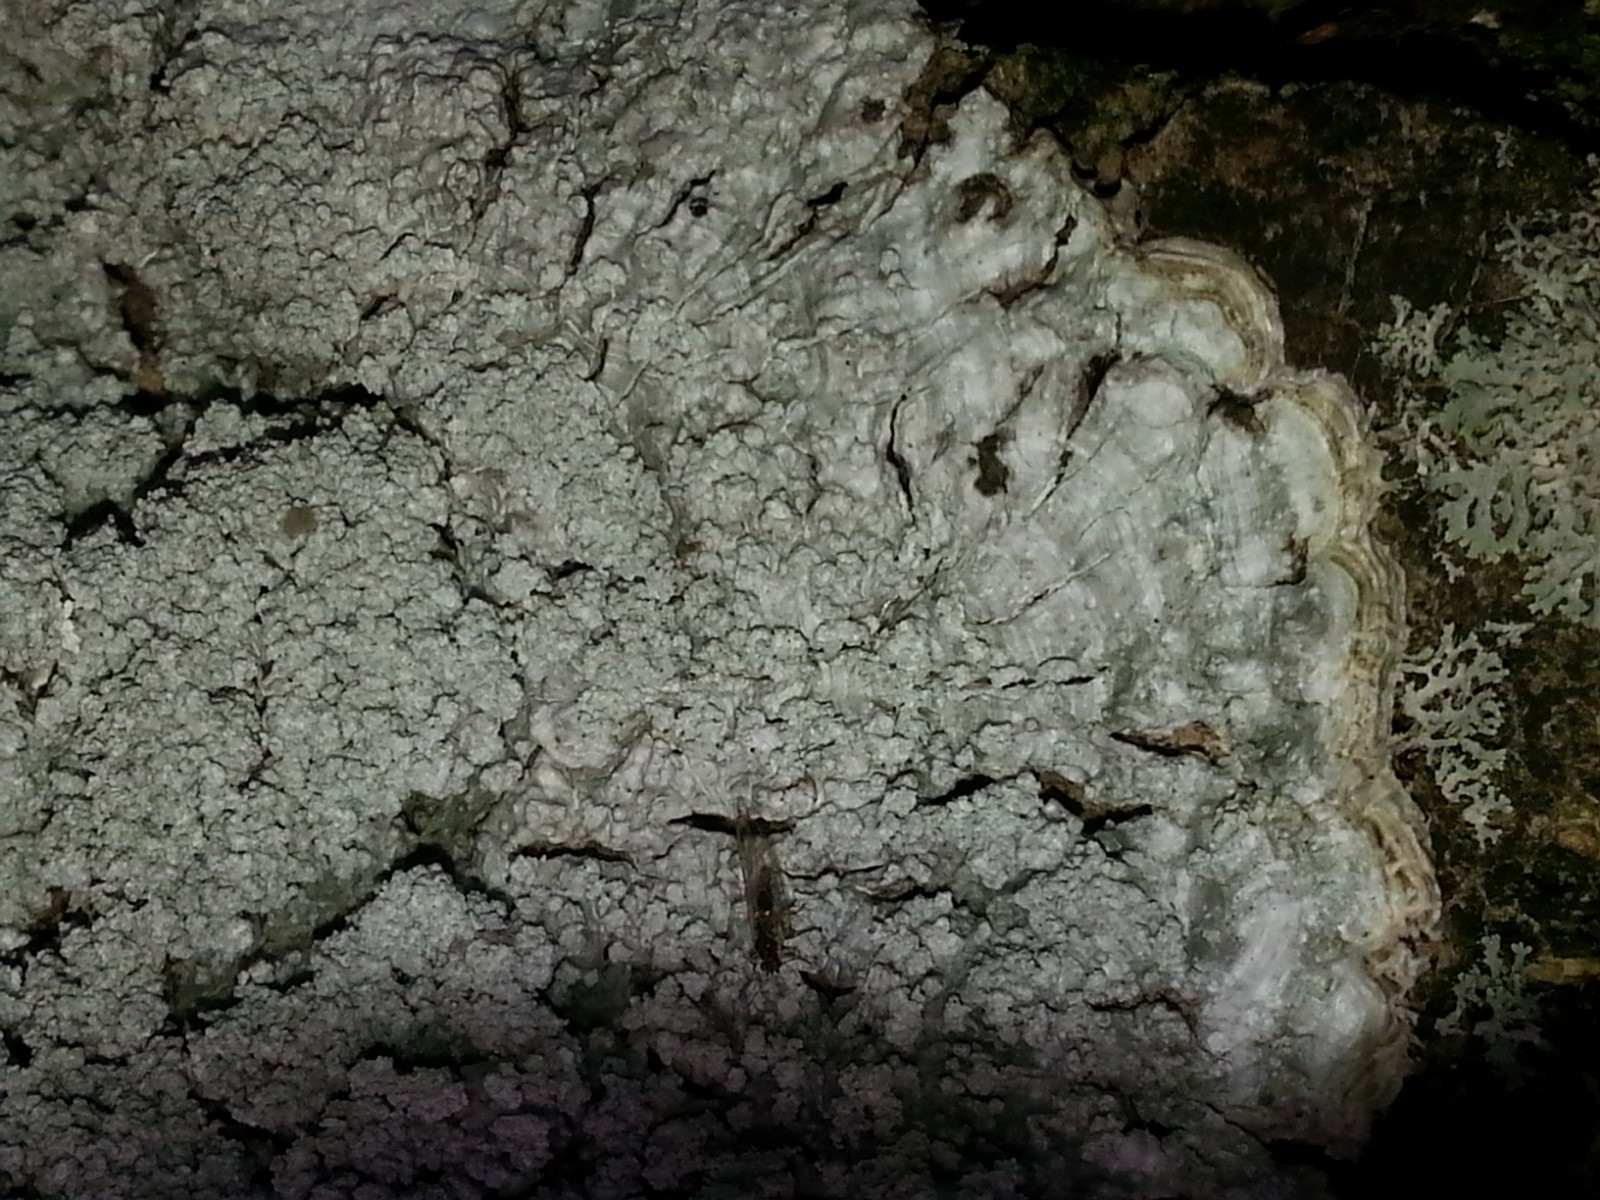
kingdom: Fungi
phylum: Ascomycota
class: Lecanoromycetes
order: Pertusariales
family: Pertusariaceae
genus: Lepra
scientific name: Lepra albescens
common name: hvidmelet prikvortelav
